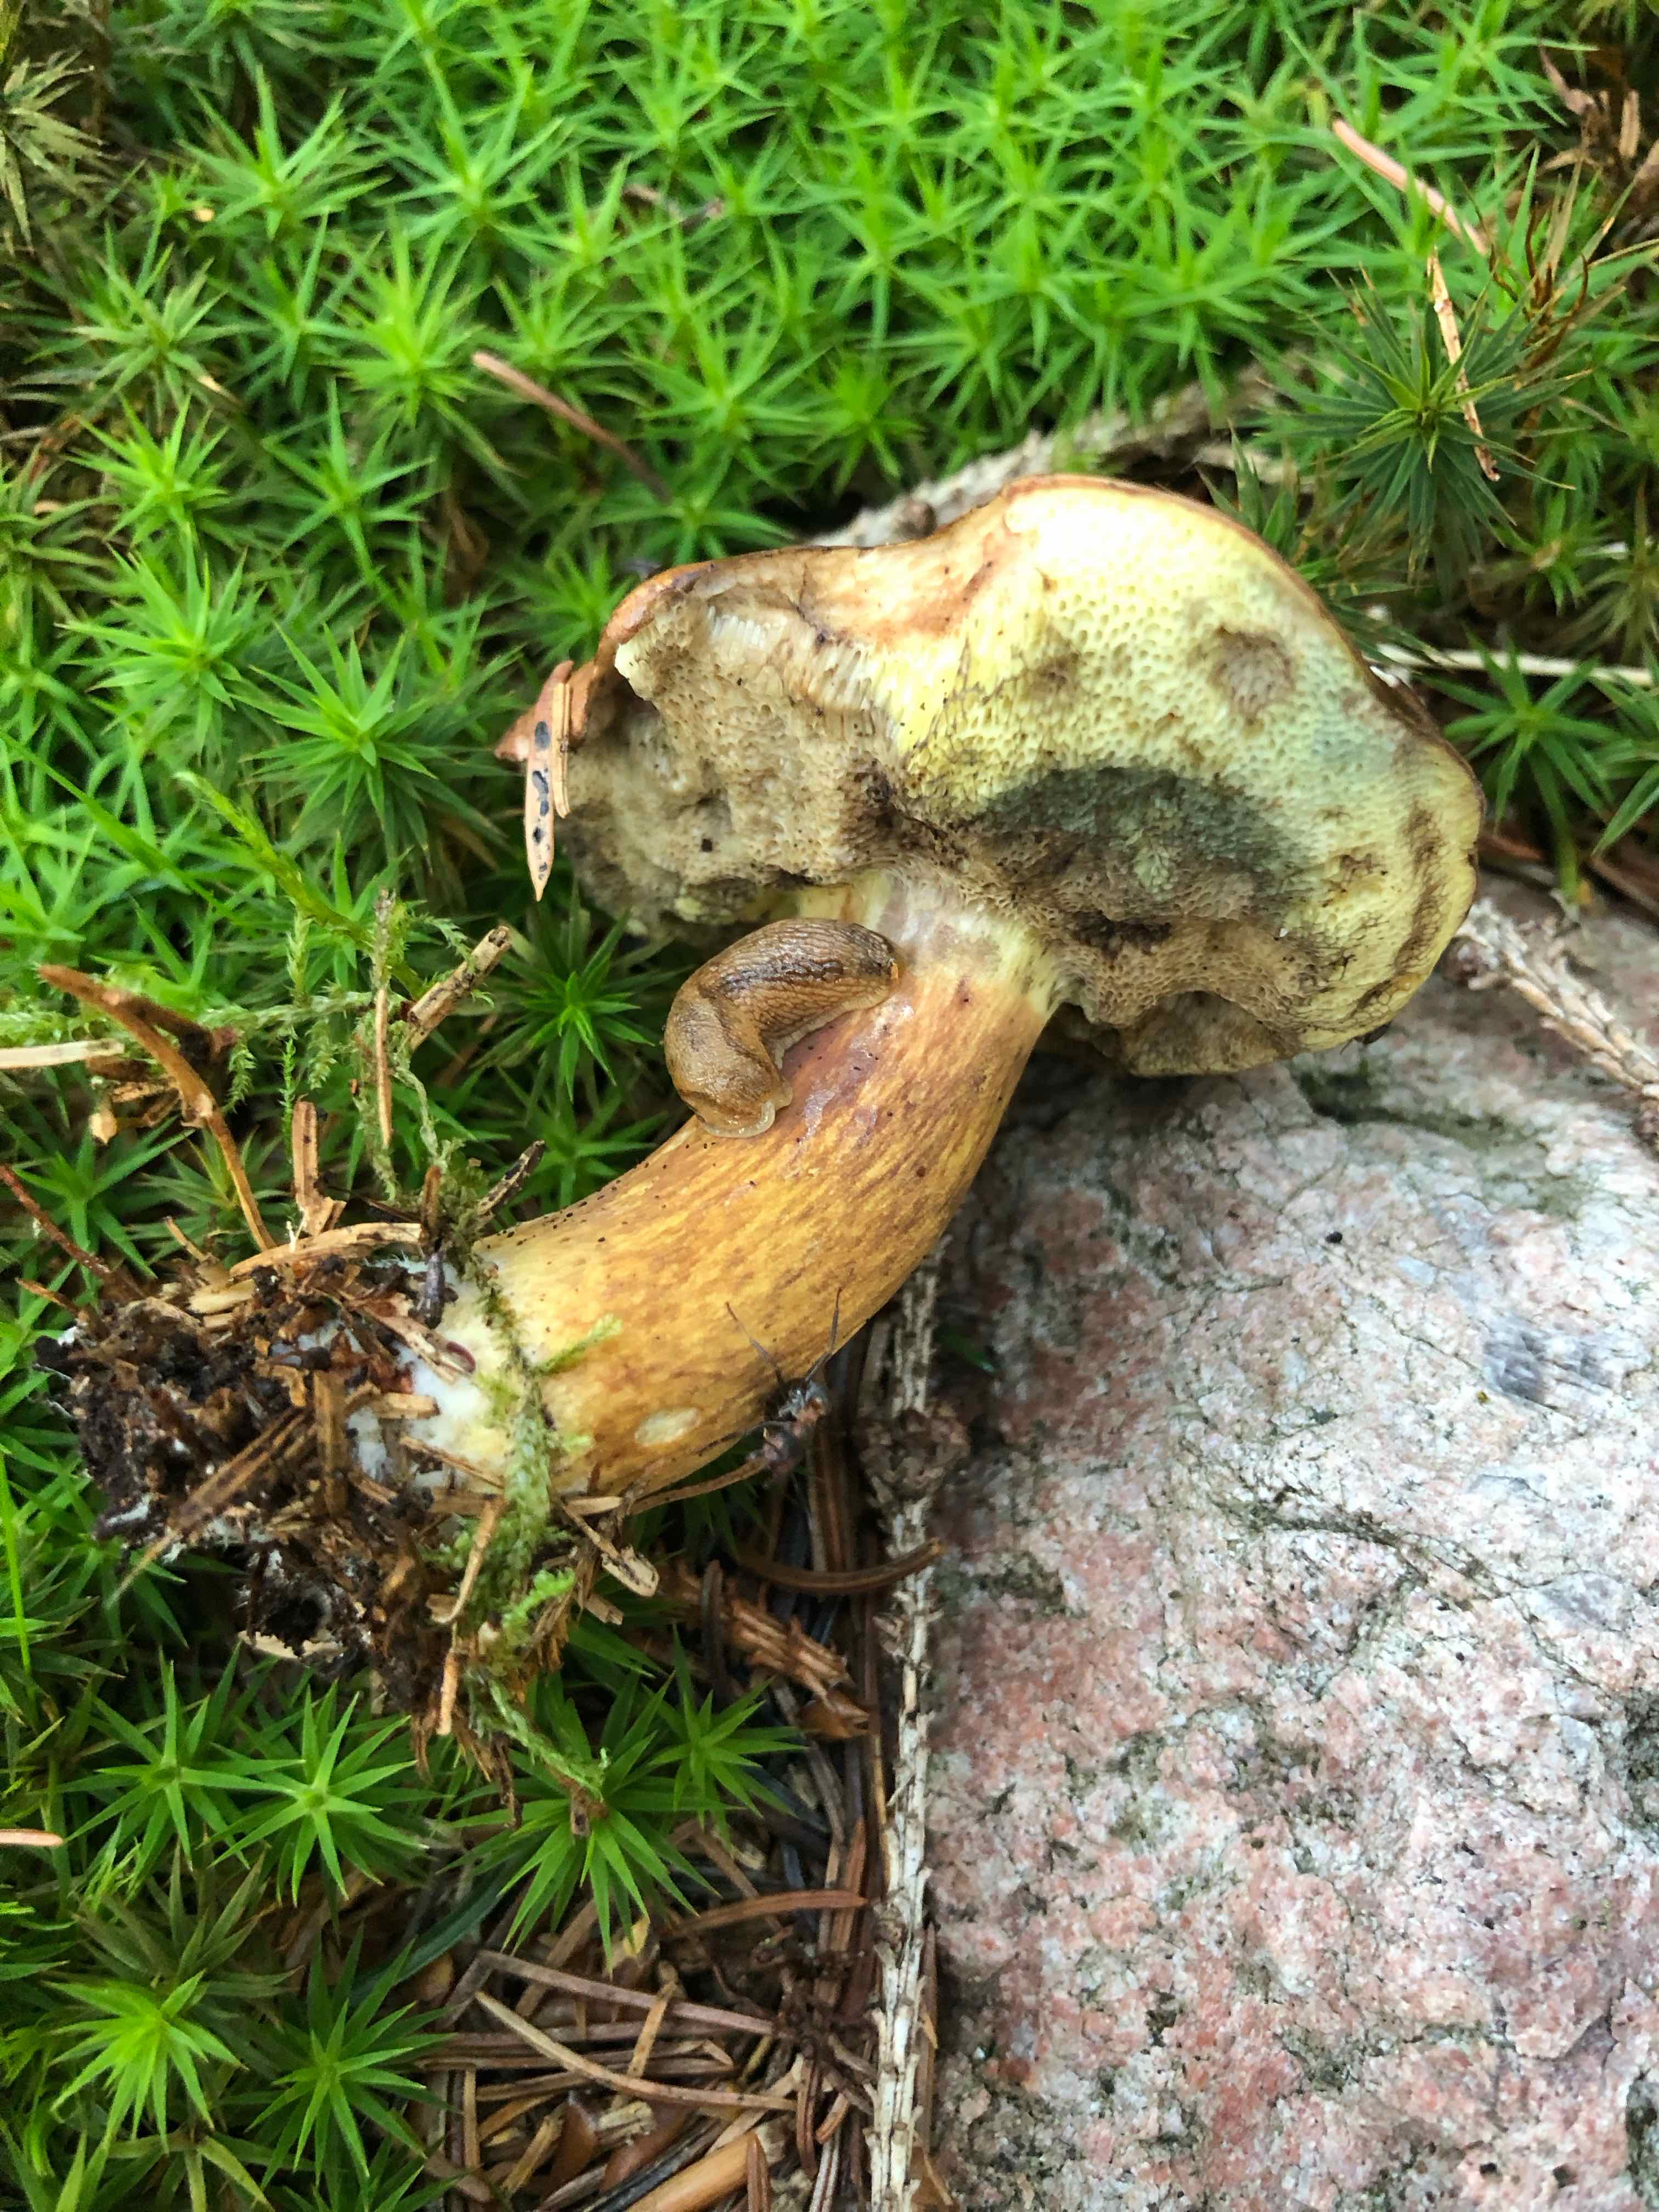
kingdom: Fungi
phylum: Basidiomycota
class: Agaricomycetes
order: Boletales
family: Boletaceae
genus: Imleria
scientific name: Imleria badia
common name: brunstokket rørhat
